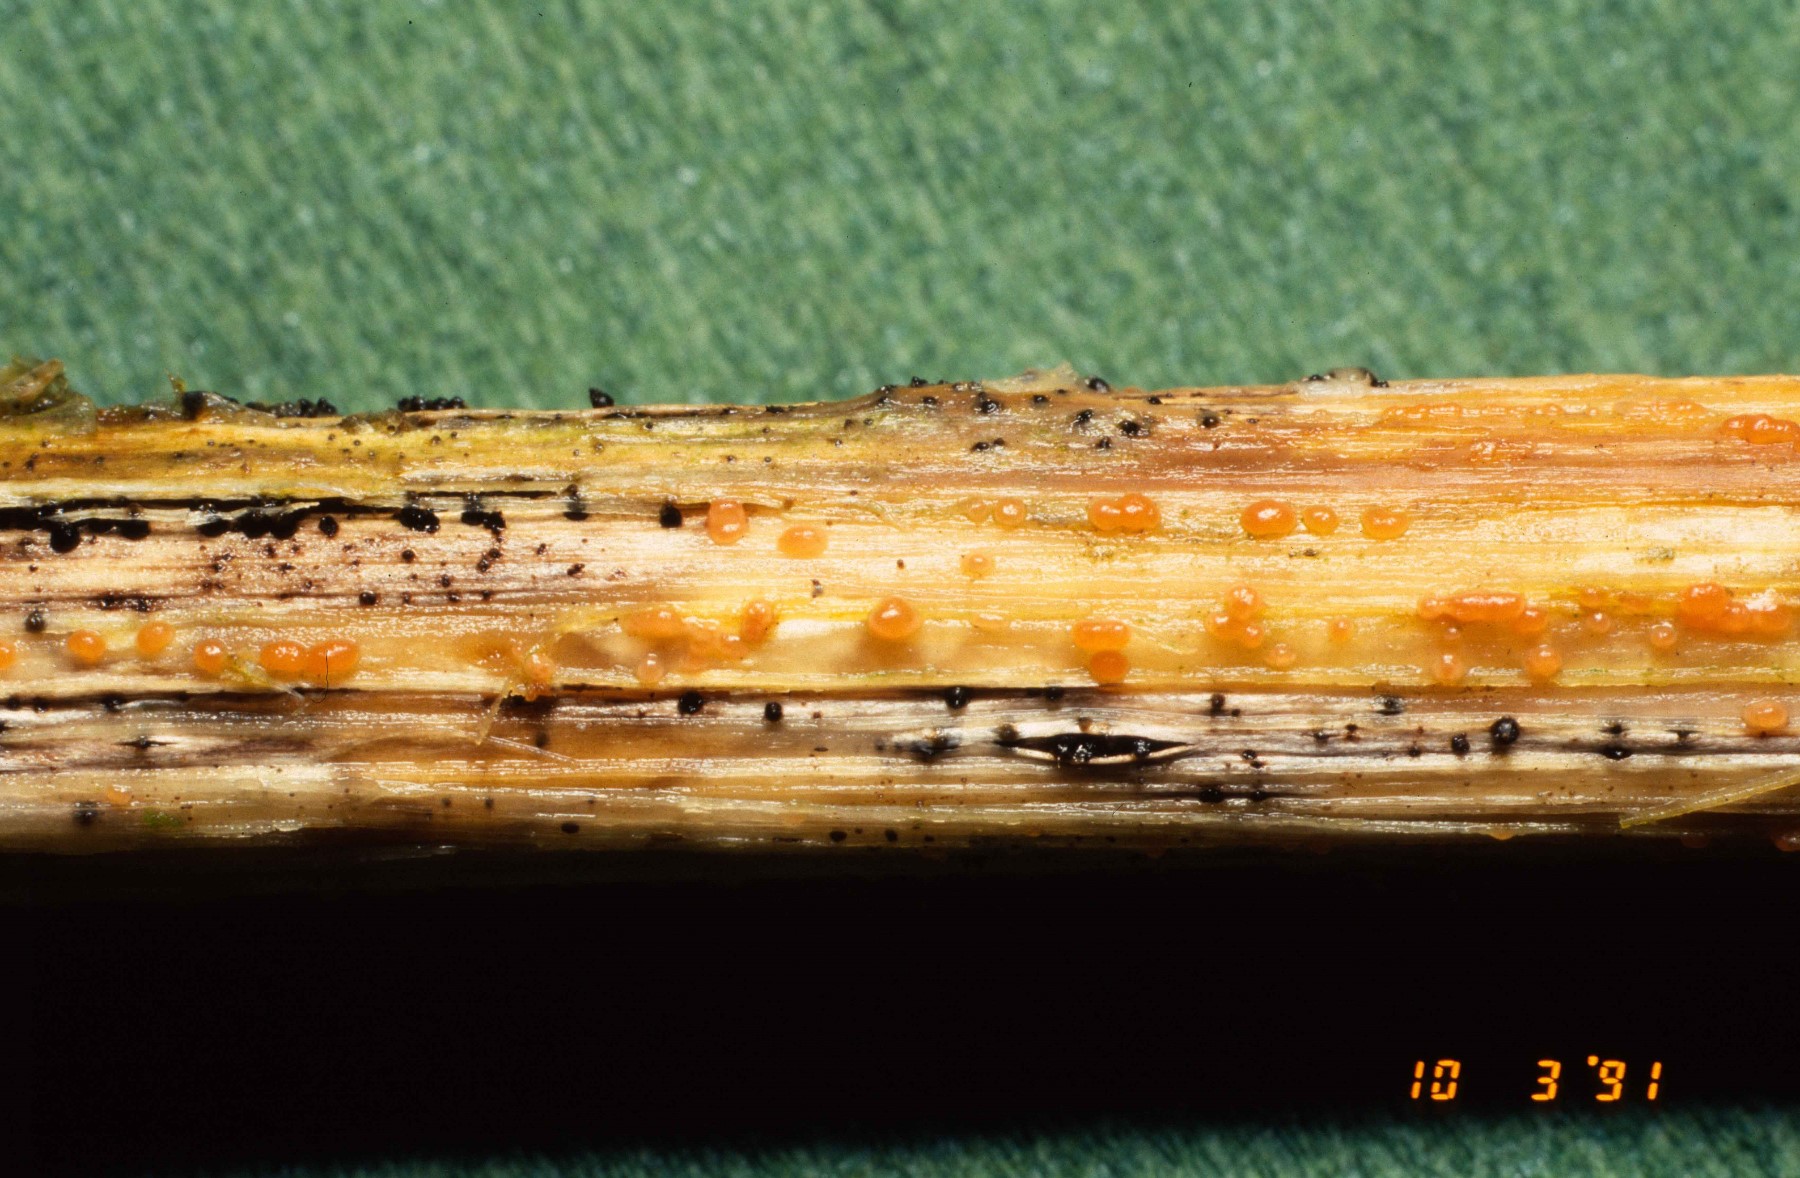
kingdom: Fungi
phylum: Ascomycota
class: Leotiomycetes
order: Helotiales
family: Calloriaceae
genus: Calloria
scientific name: Calloria urticae
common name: nælde-orangeskive
